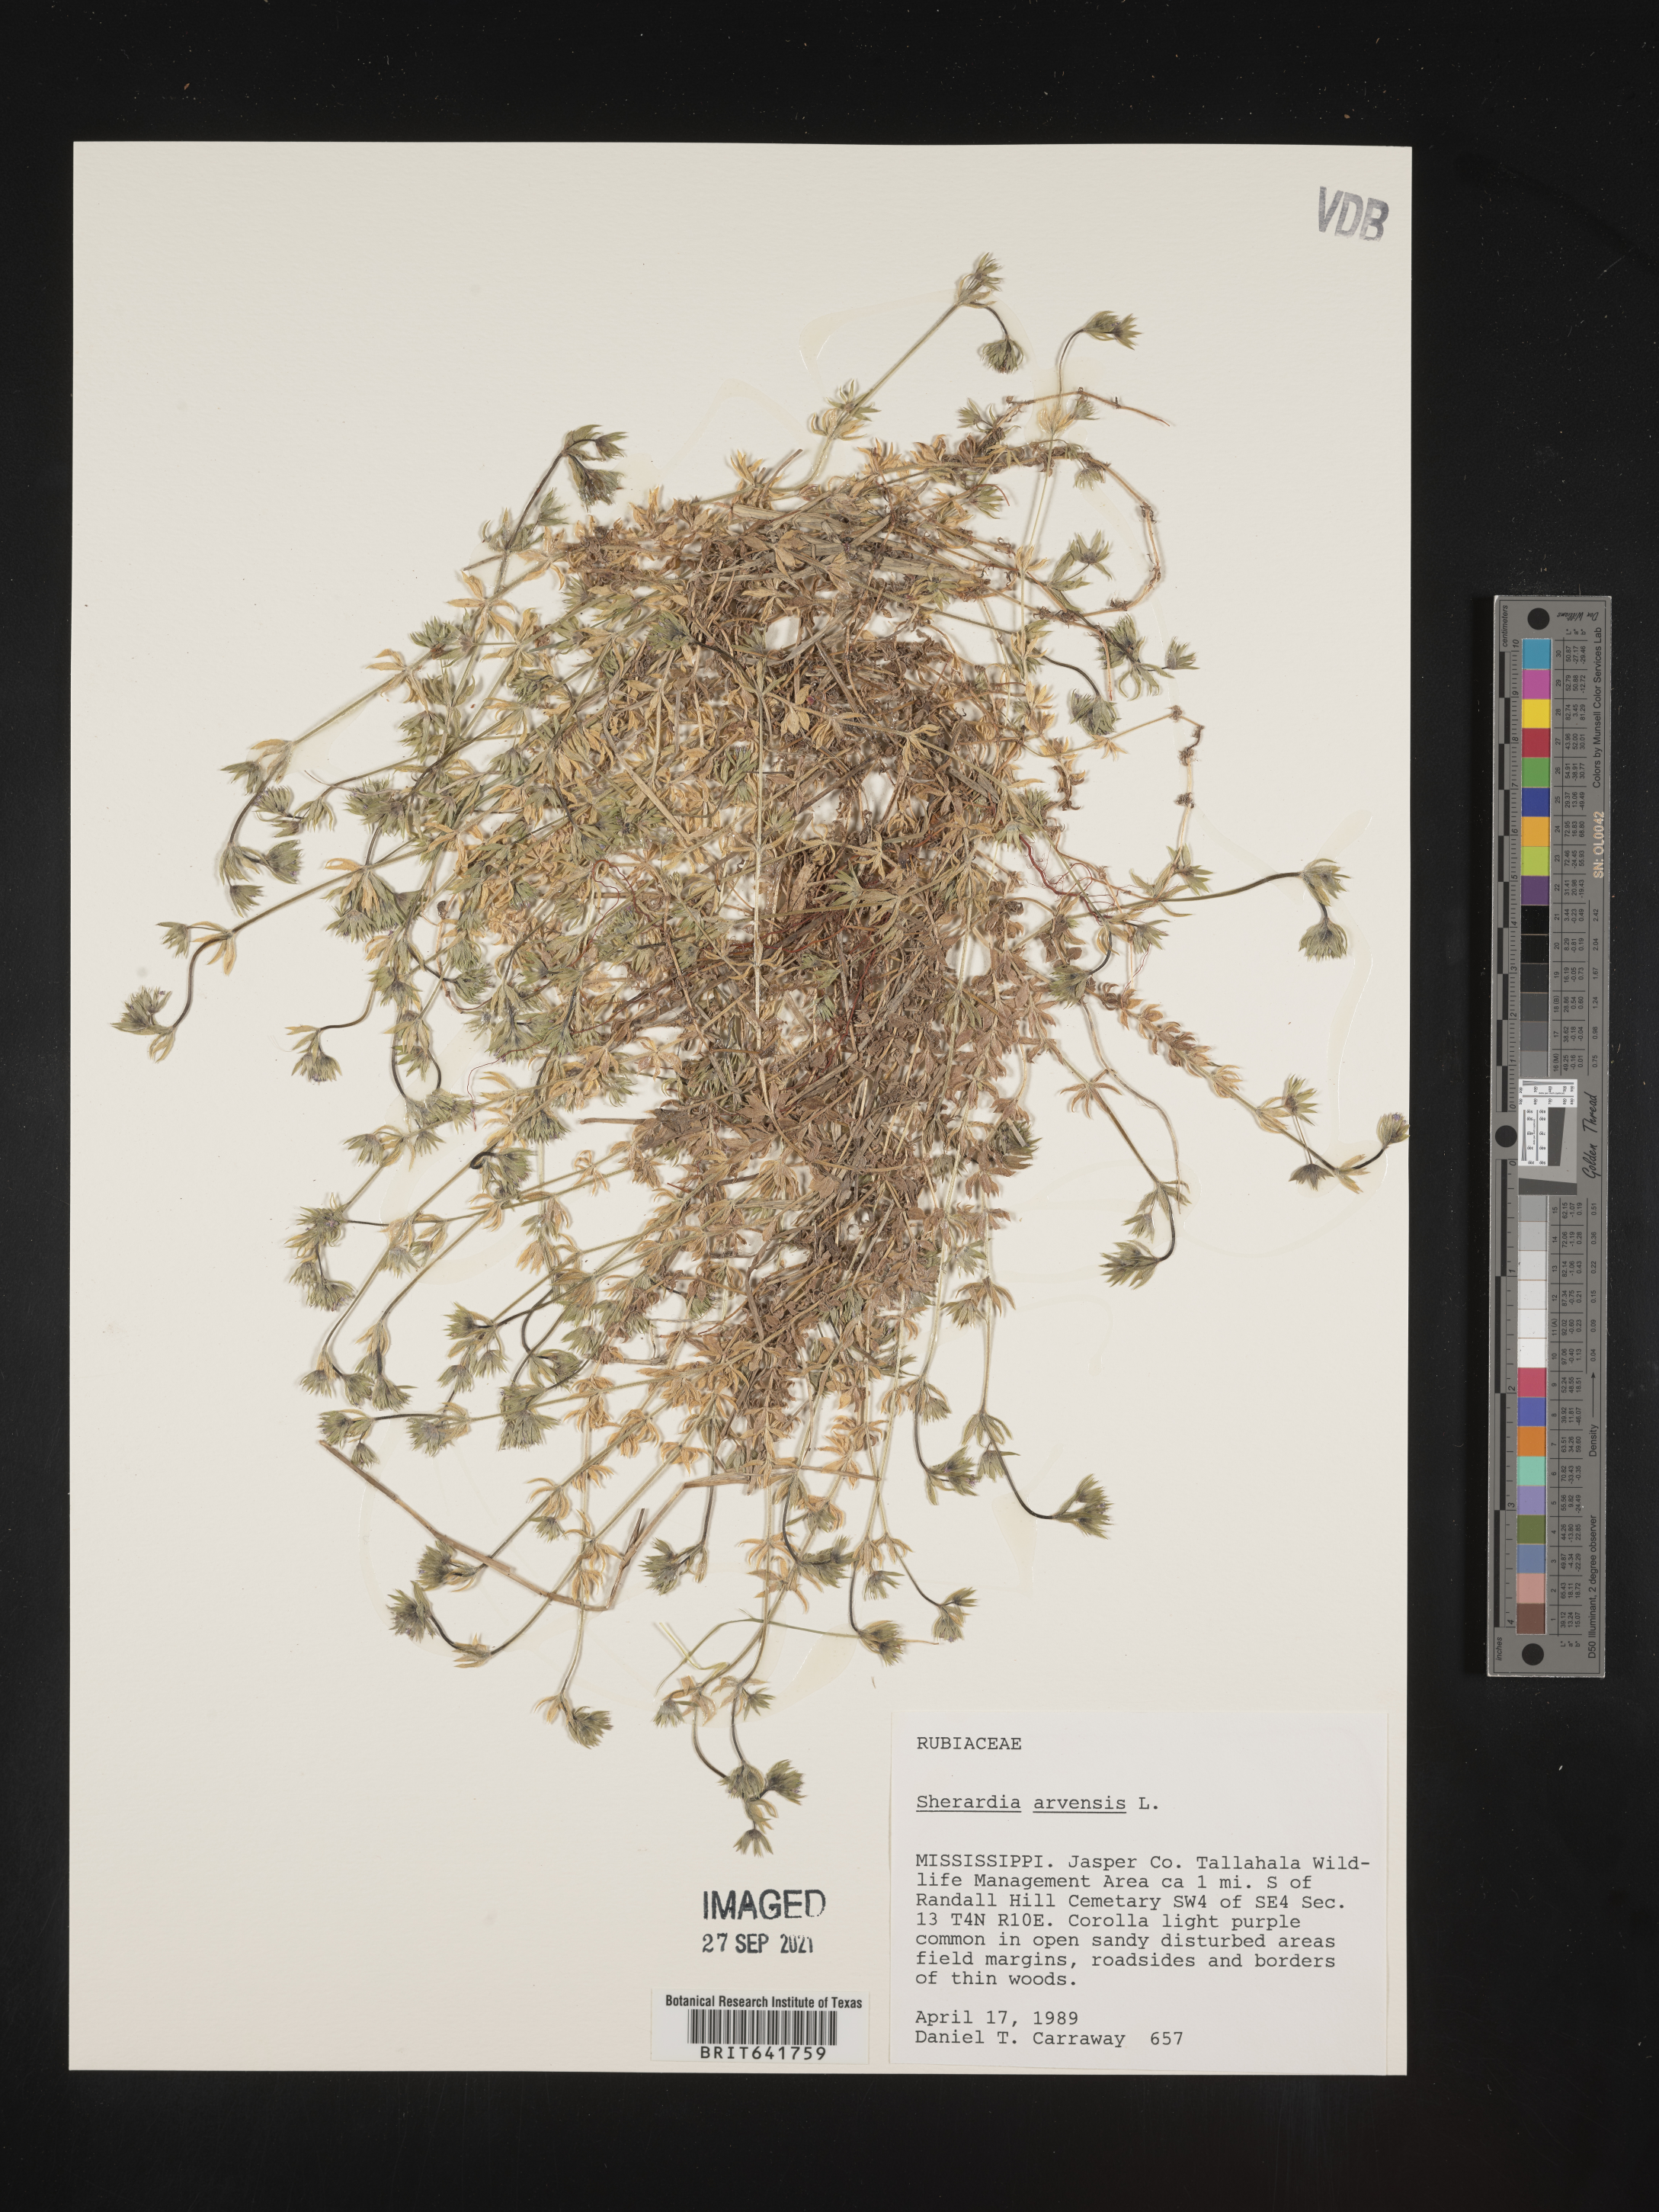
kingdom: Plantae
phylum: Tracheophyta
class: Magnoliopsida
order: Gentianales
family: Rubiaceae
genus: Sherardia
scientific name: Sherardia arvensis
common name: Field madder
